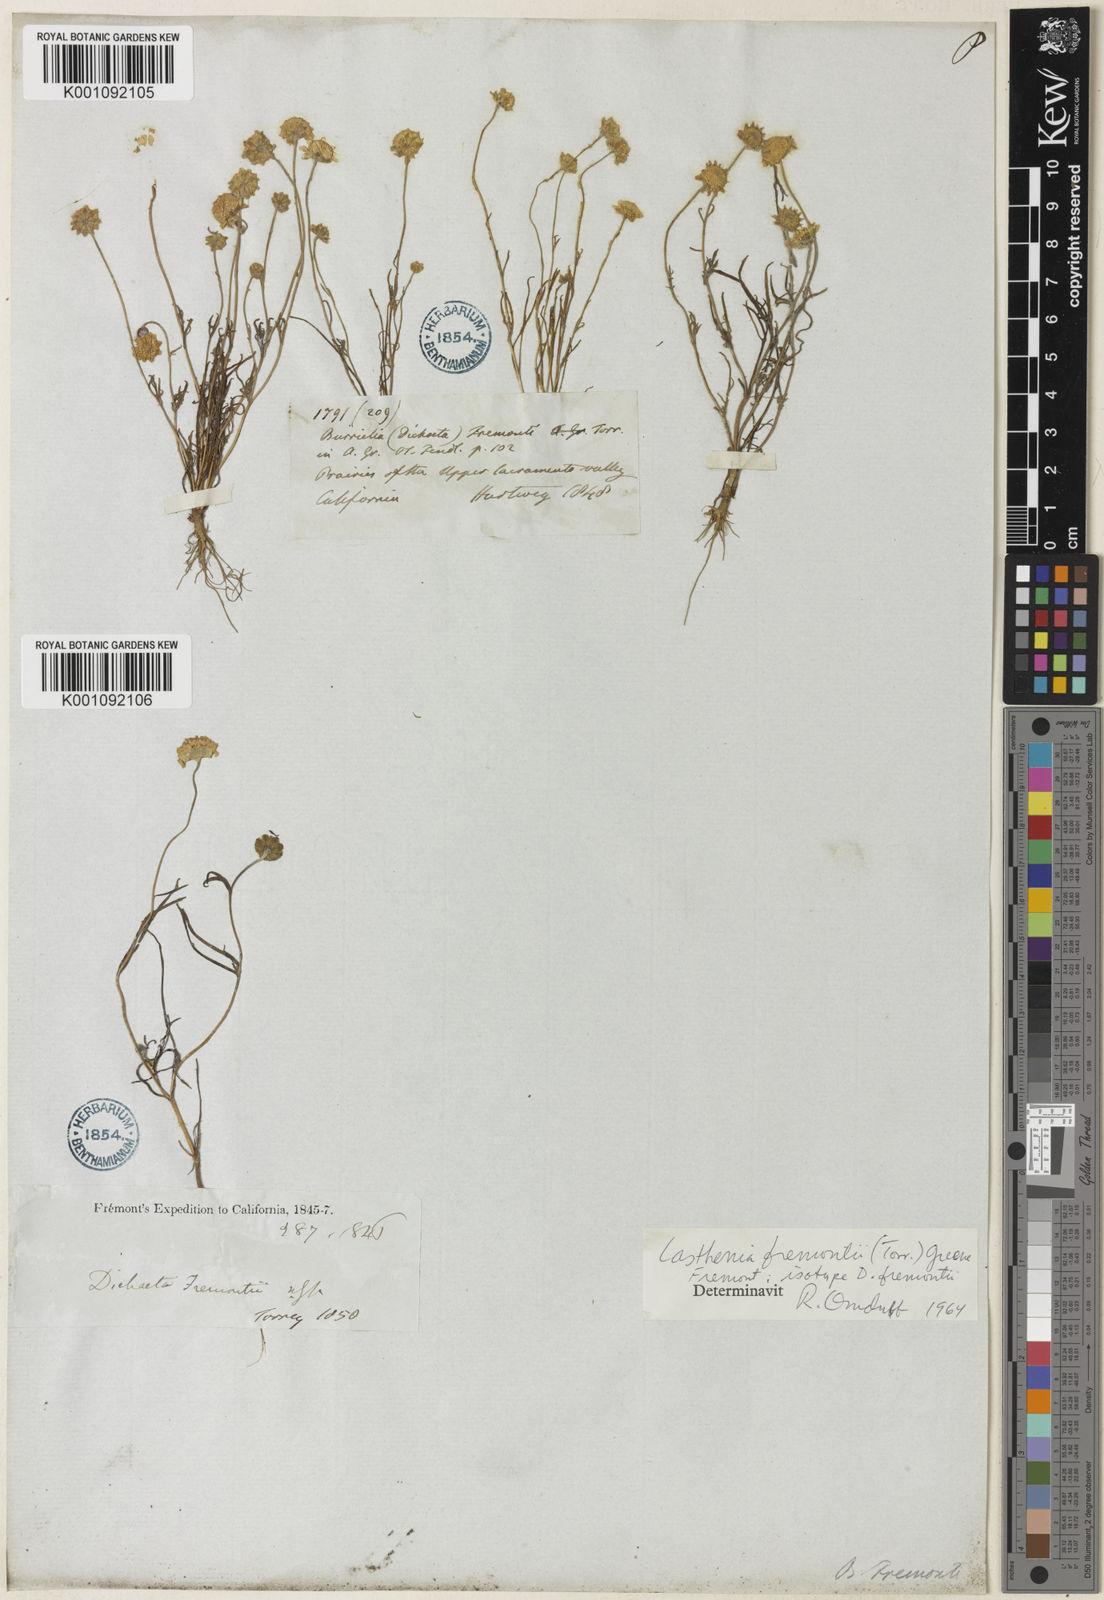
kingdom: Plantae
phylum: Tracheophyta
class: Magnoliopsida
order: Asterales
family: Asteraceae
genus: Lasthenia
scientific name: Lasthenia fremontii
